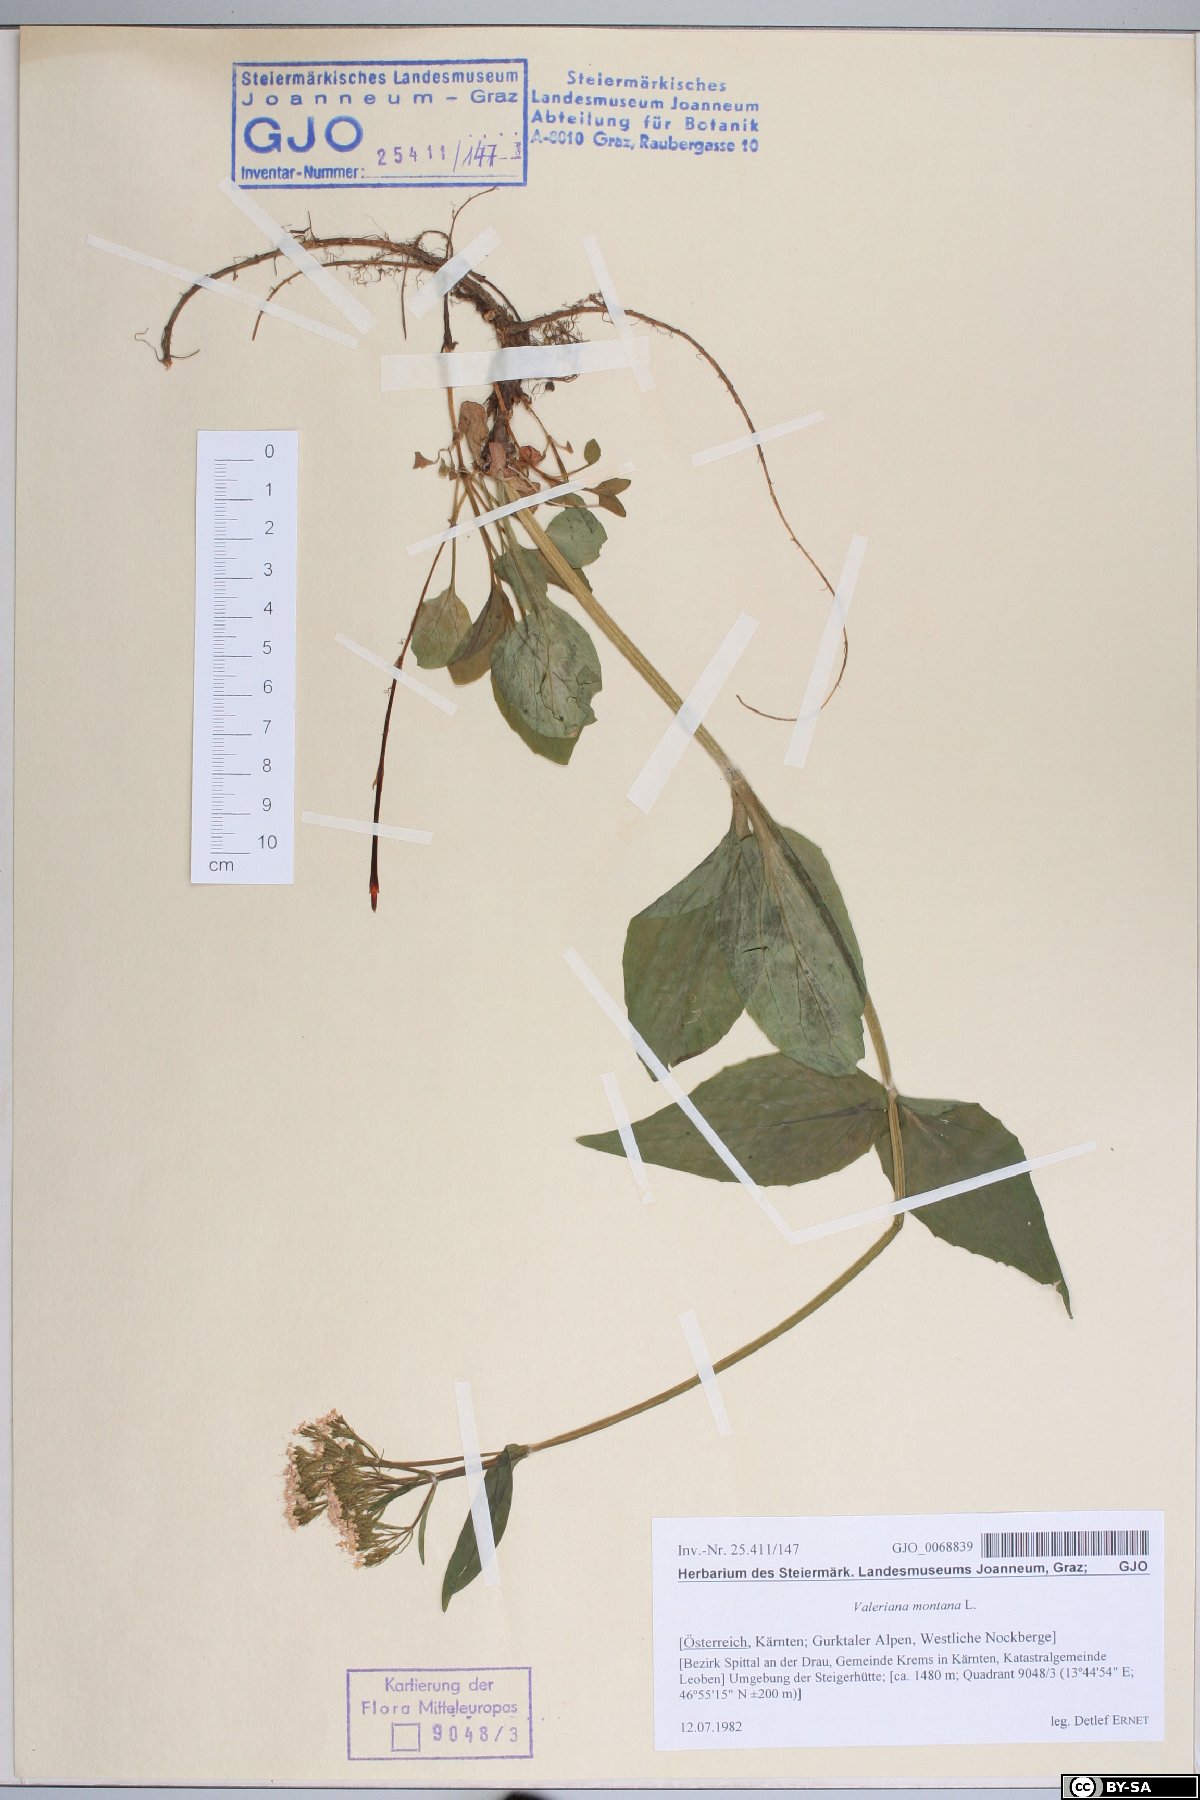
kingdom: Plantae
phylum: Tracheophyta
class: Magnoliopsida
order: Dipsacales
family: Caprifoliaceae
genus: Valeriana
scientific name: Valeriana montana
